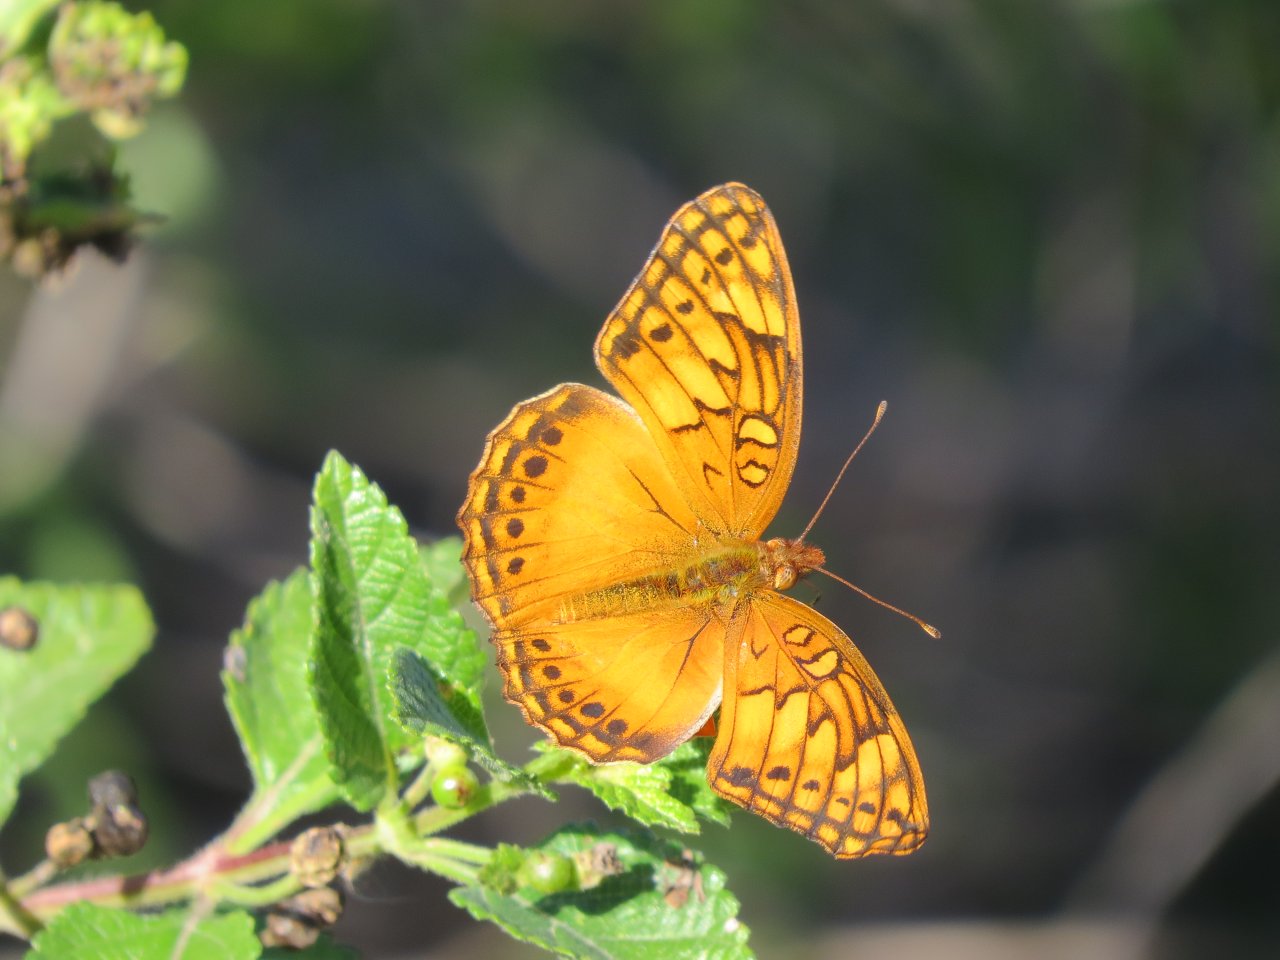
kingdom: Animalia
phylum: Arthropoda
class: Insecta
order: Lepidoptera
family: Nymphalidae
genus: Euptoieta
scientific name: Euptoieta hegesia
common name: Mexican Fritillary
